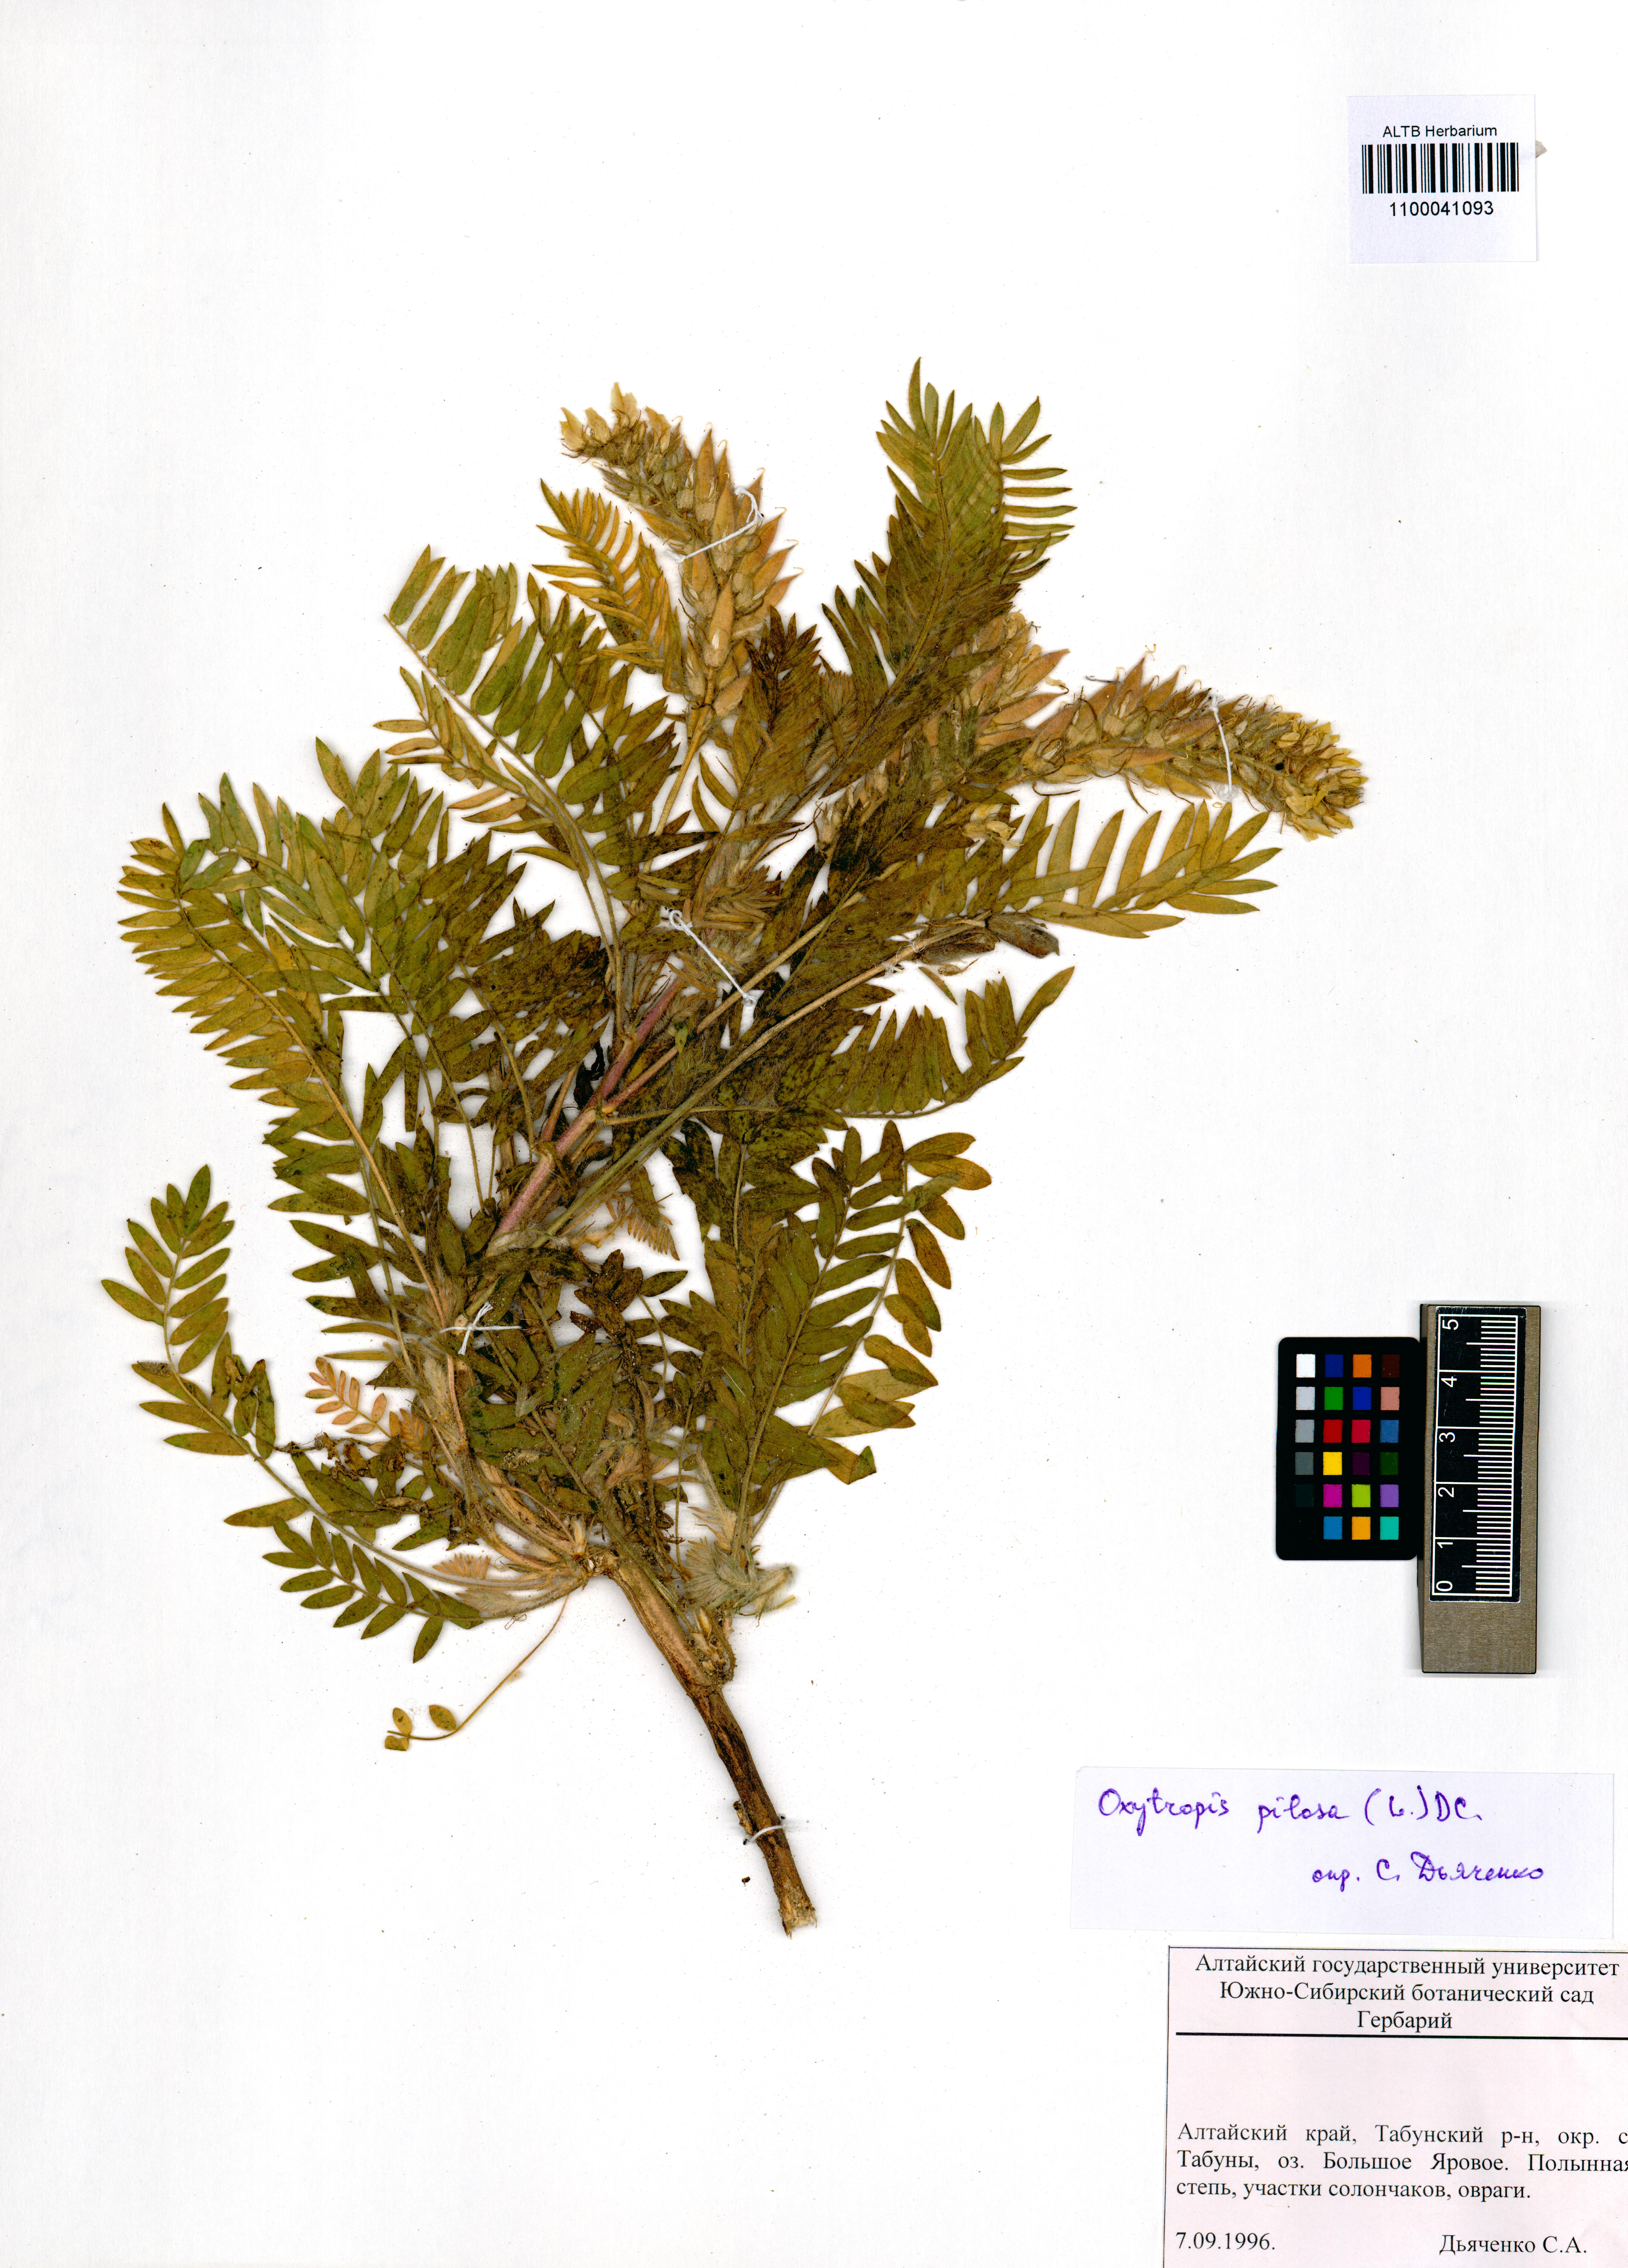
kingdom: Plantae
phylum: Tracheophyta
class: Magnoliopsida
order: Fabales
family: Fabaceae
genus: Oxytropis
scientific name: Oxytropis pilosa
